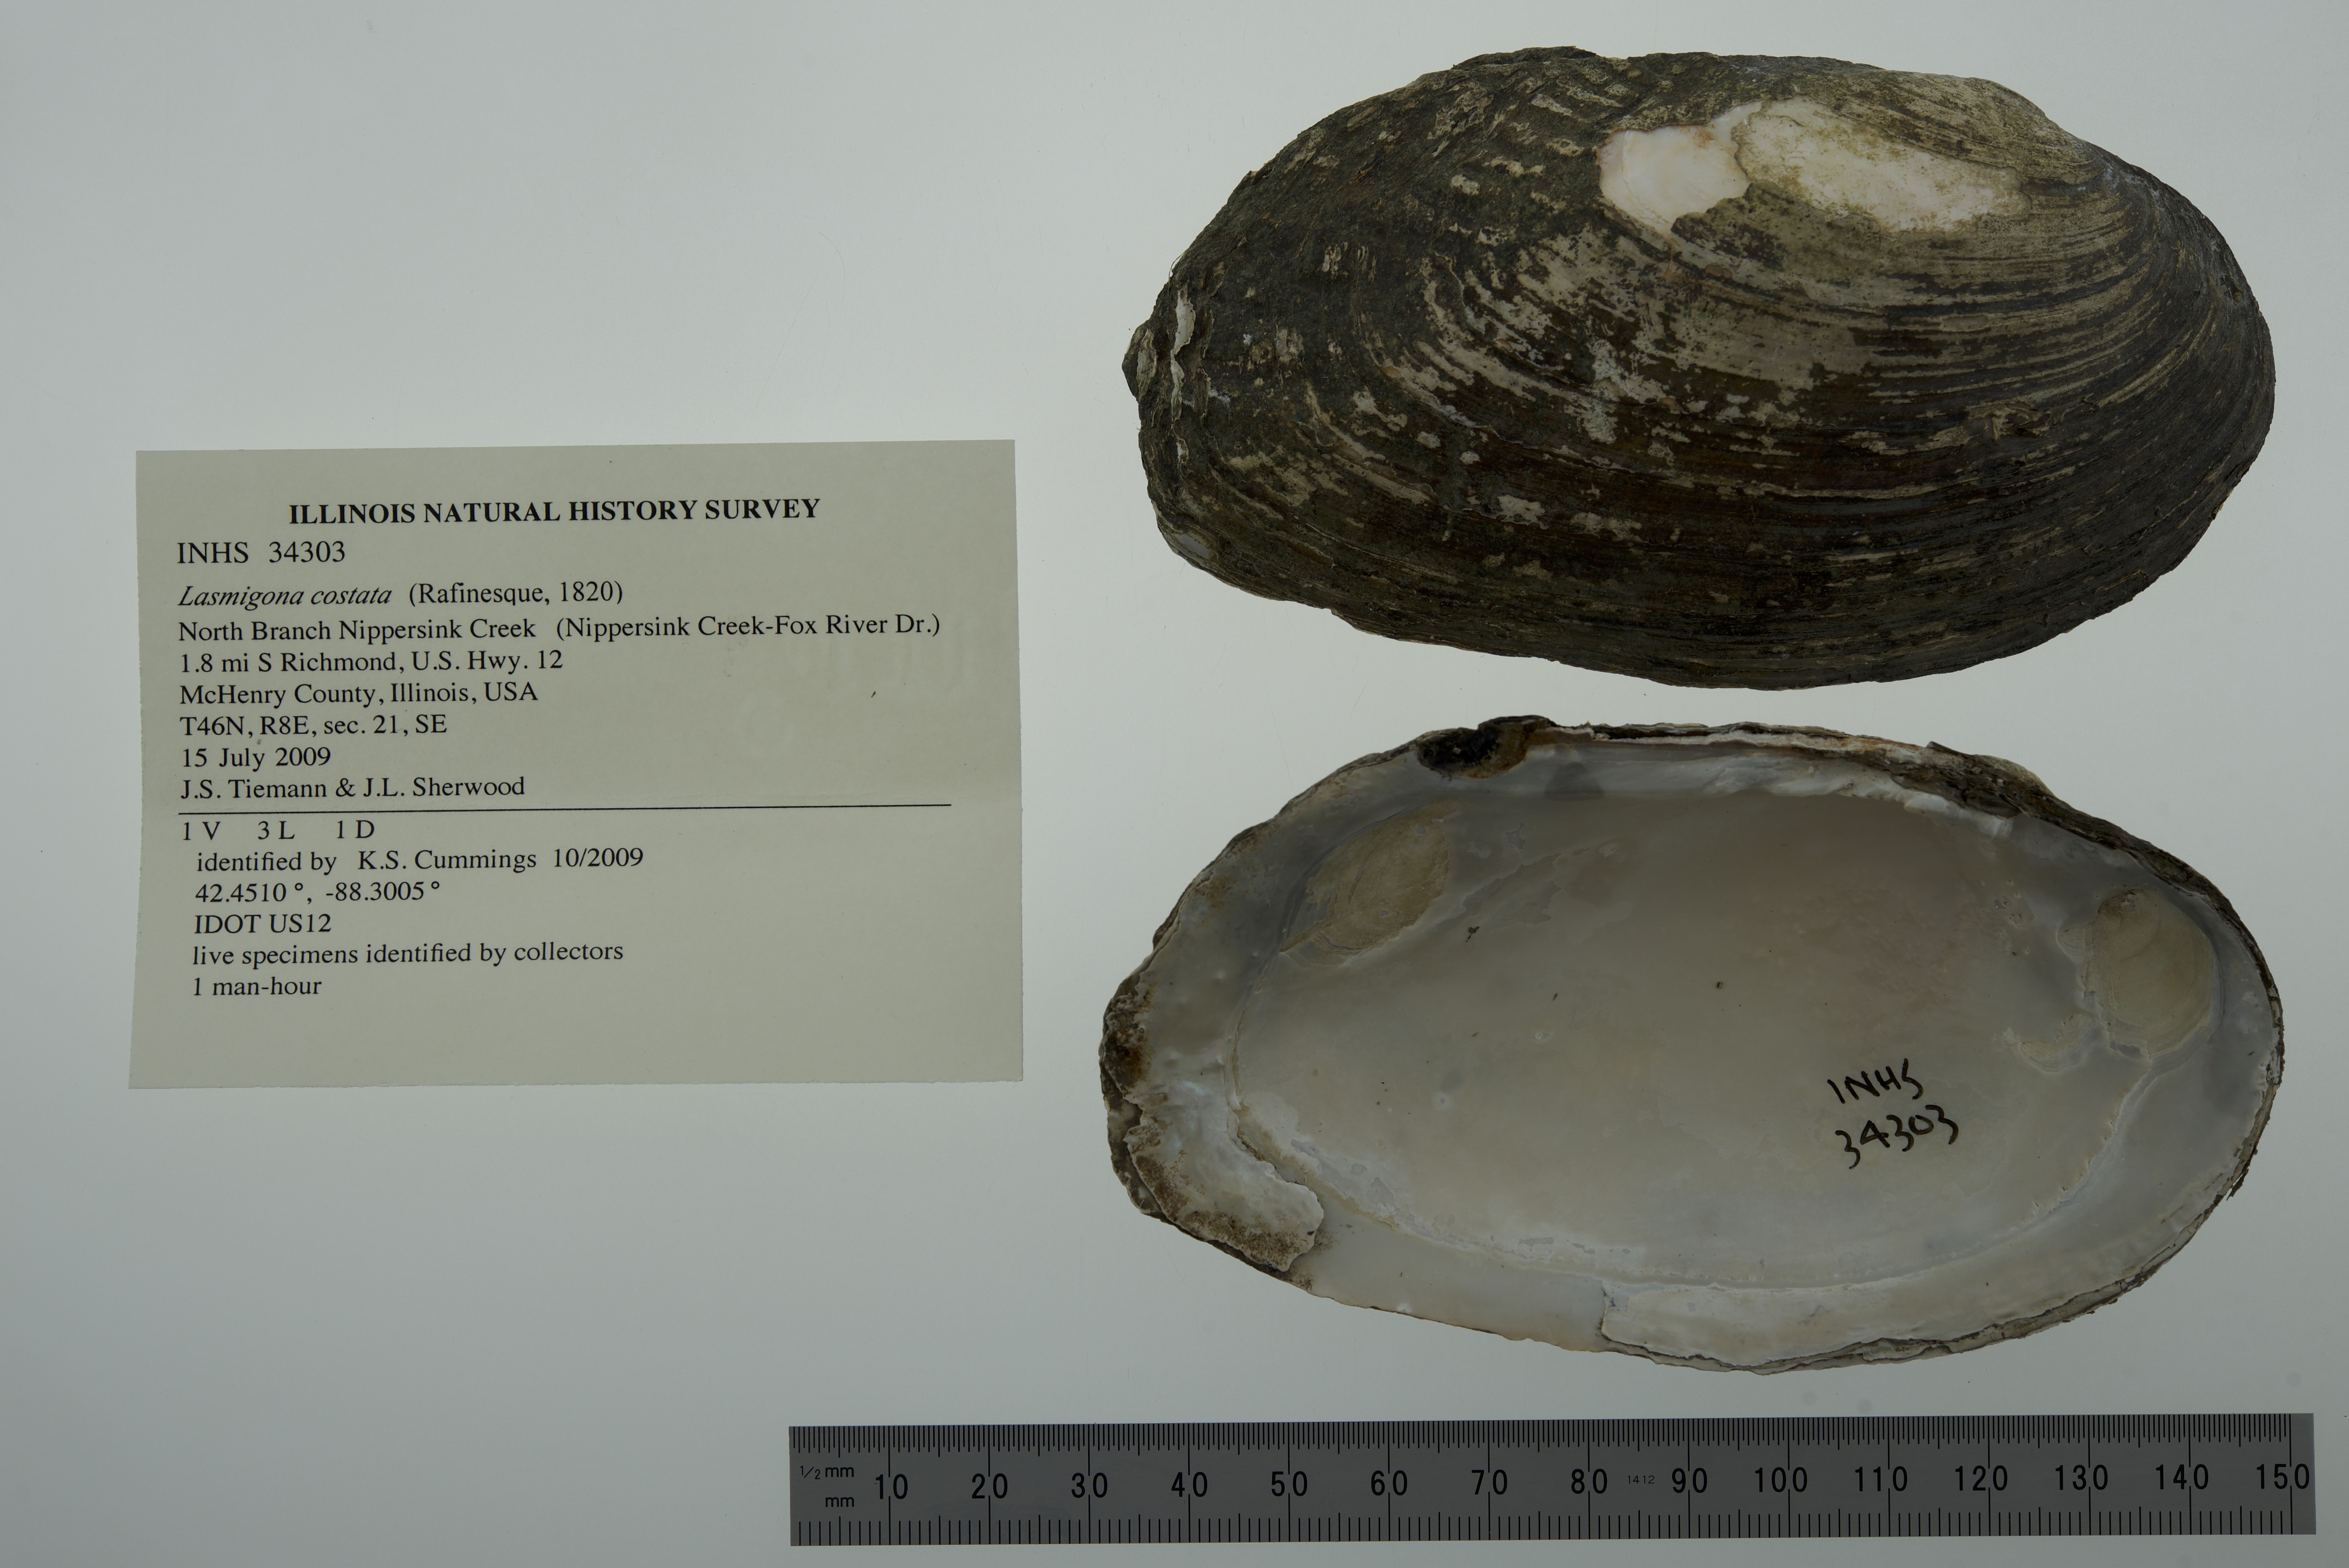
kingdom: Animalia
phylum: Mollusca
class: Bivalvia
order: Unionida
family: Unionidae
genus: Lasmigona
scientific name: Lasmigona costata
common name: Flutedshell
